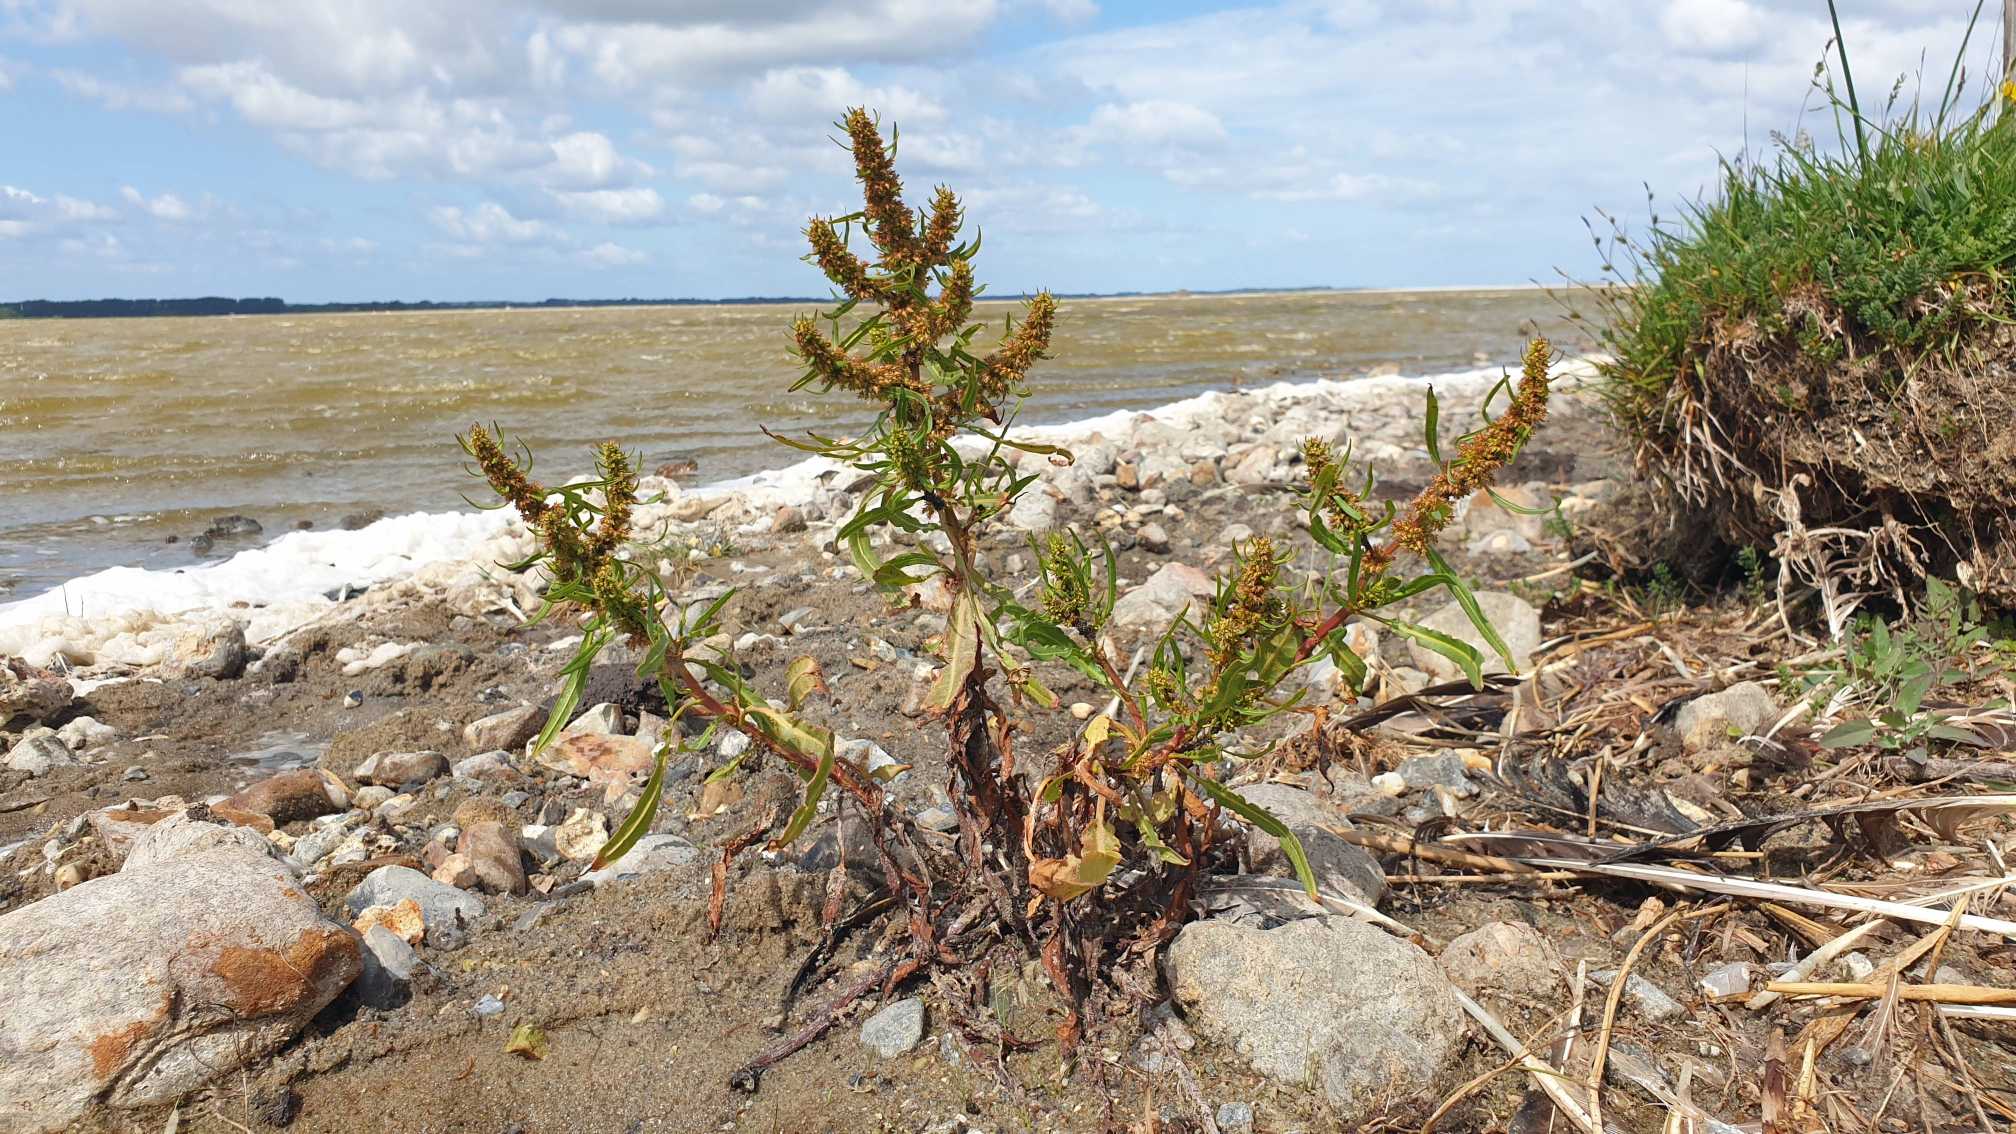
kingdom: Plantae
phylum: Tracheophyta
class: Magnoliopsida
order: Caryophyllales
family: Polygonaceae
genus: Rumex
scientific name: Rumex palustris
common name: Sump-skræppe
